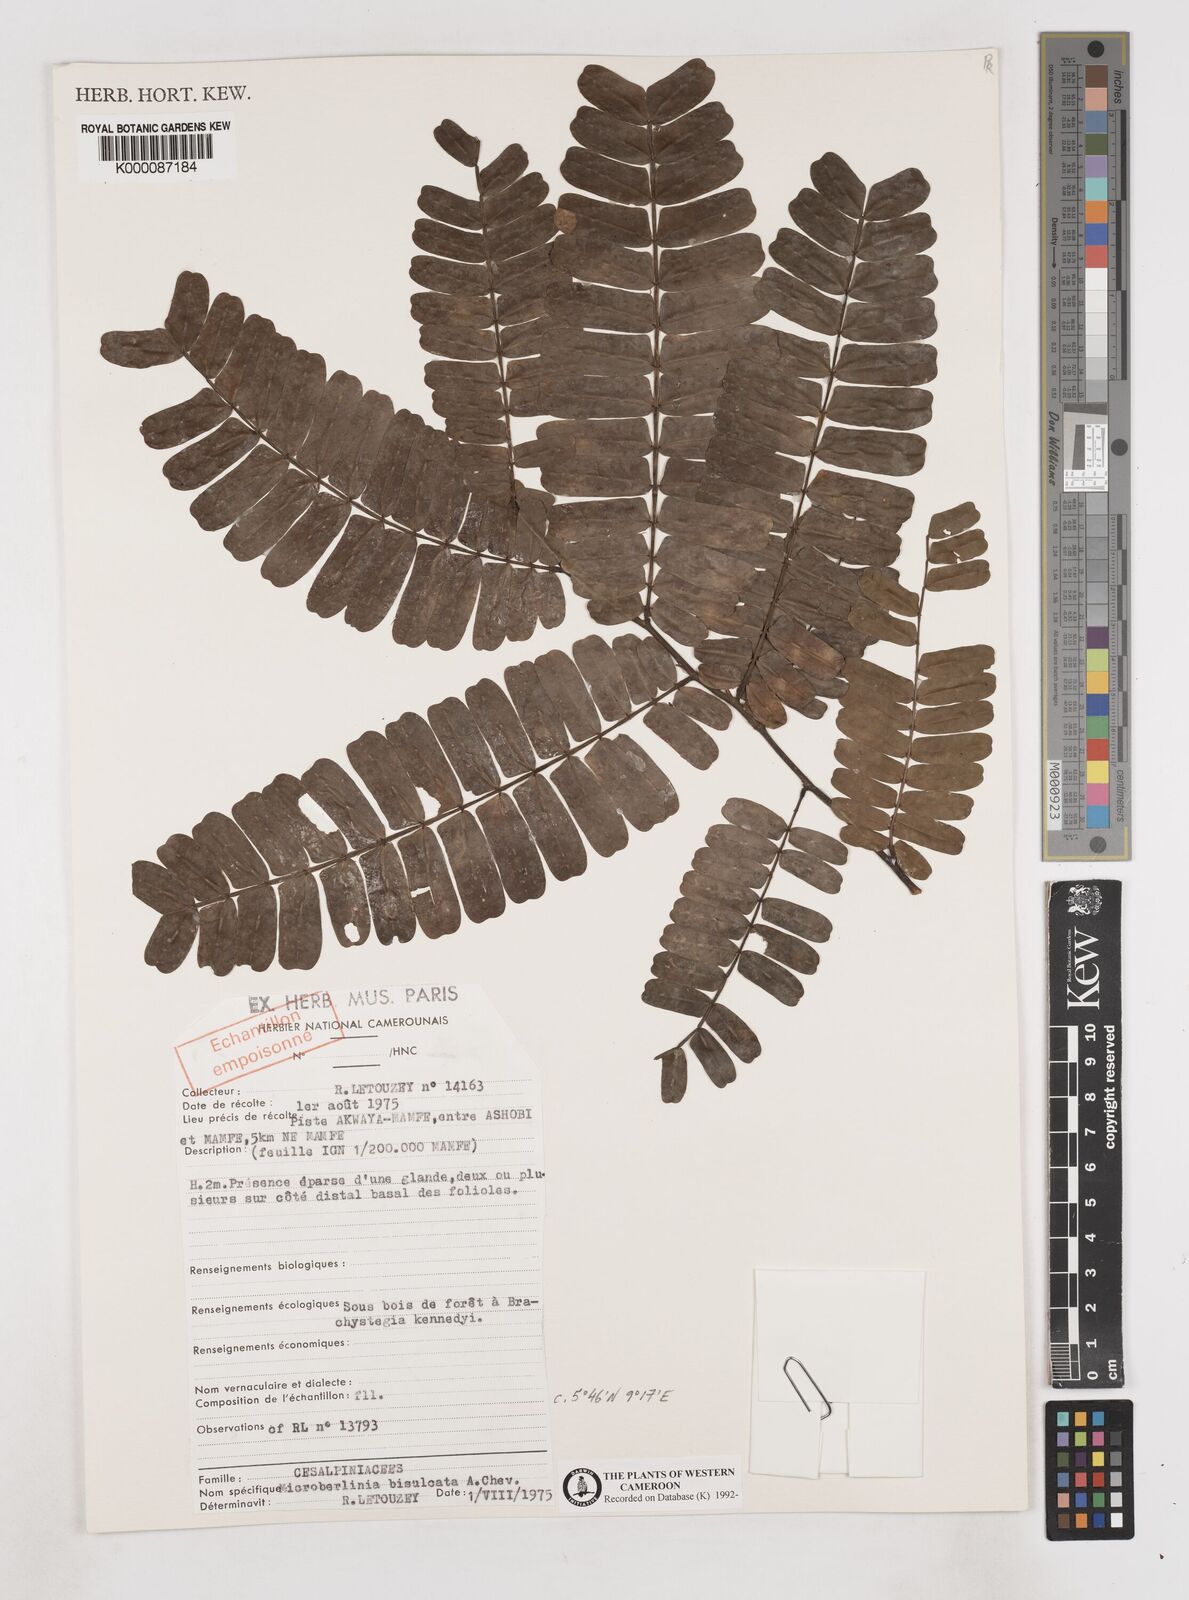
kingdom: Plantae
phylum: Tracheophyta
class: Magnoliopsida
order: Fabales
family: Fabaceae
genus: Microberlinia
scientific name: Microberlinia bisulcata
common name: Zingana
